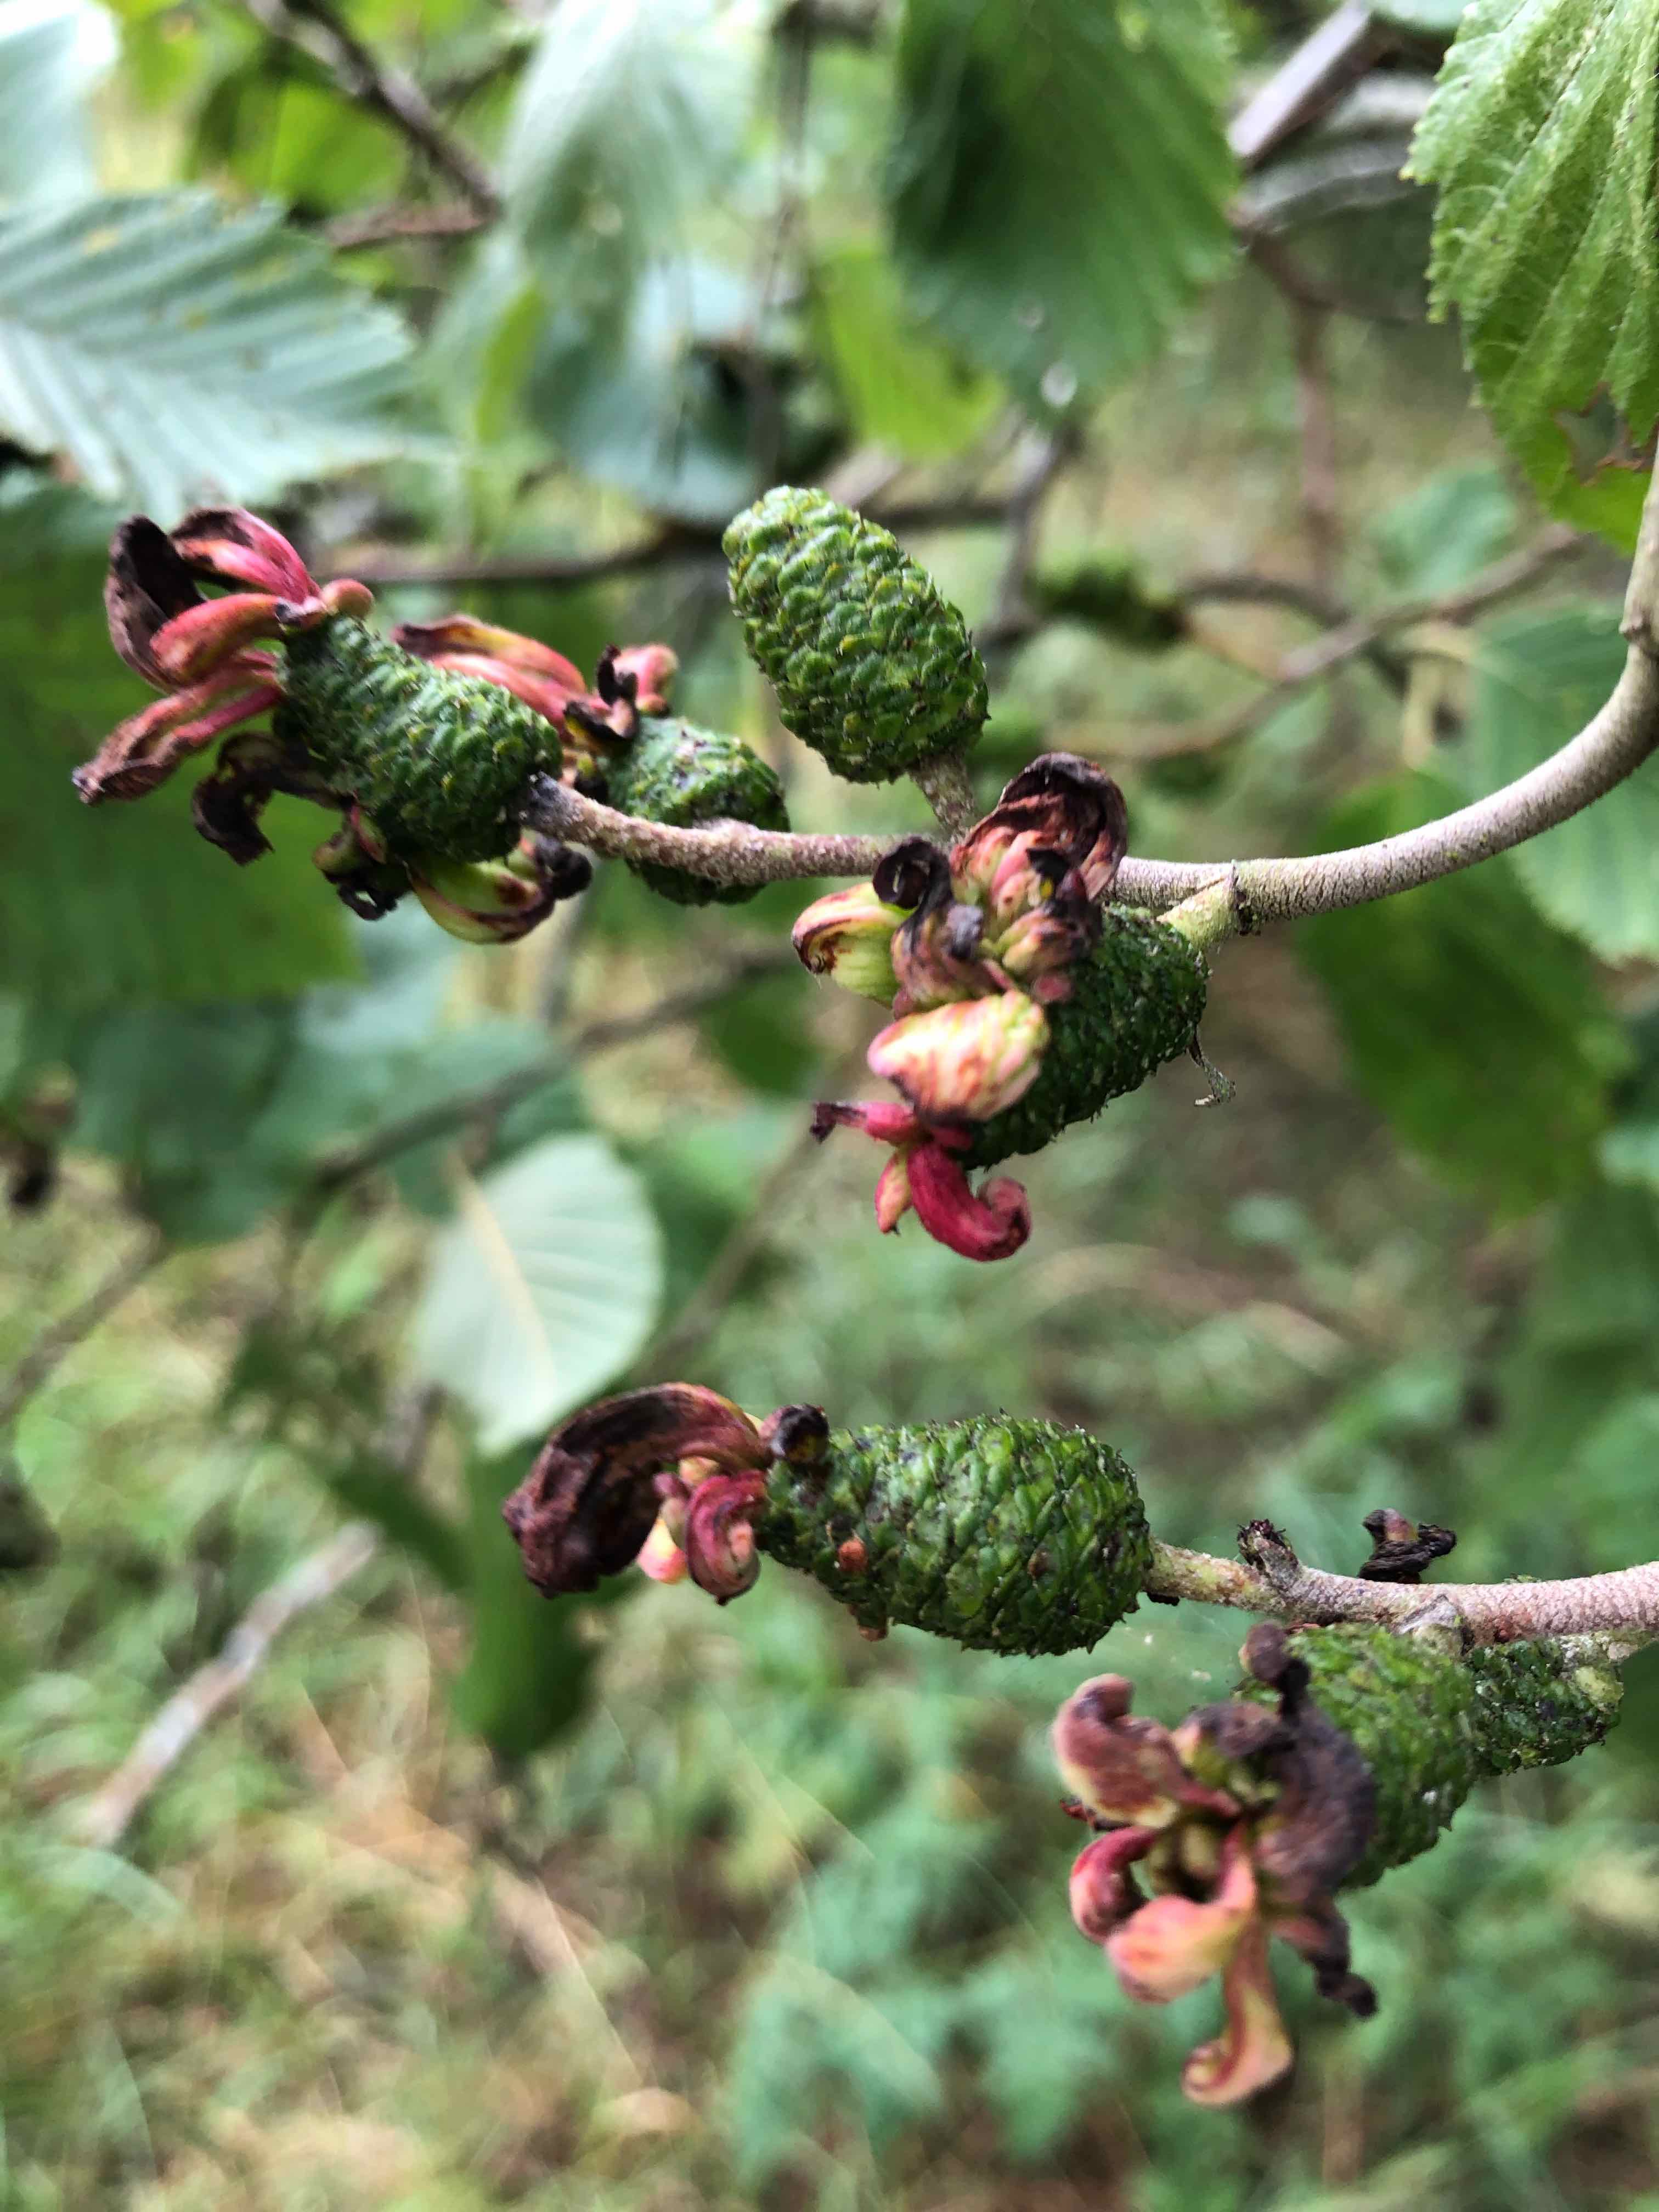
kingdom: Fungi
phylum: Ascomycota
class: Taphrinomycetes
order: Taphrinales
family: Taphrinaceae
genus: Taphrina
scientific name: Taphrina alni
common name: Alder tongue
